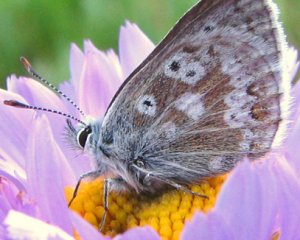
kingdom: Animalia
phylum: Arthropoda
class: Insecta
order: Lepidoptera
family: Lycaenidae
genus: Agriades
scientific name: Agriades glandon
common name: Arctic Blue
